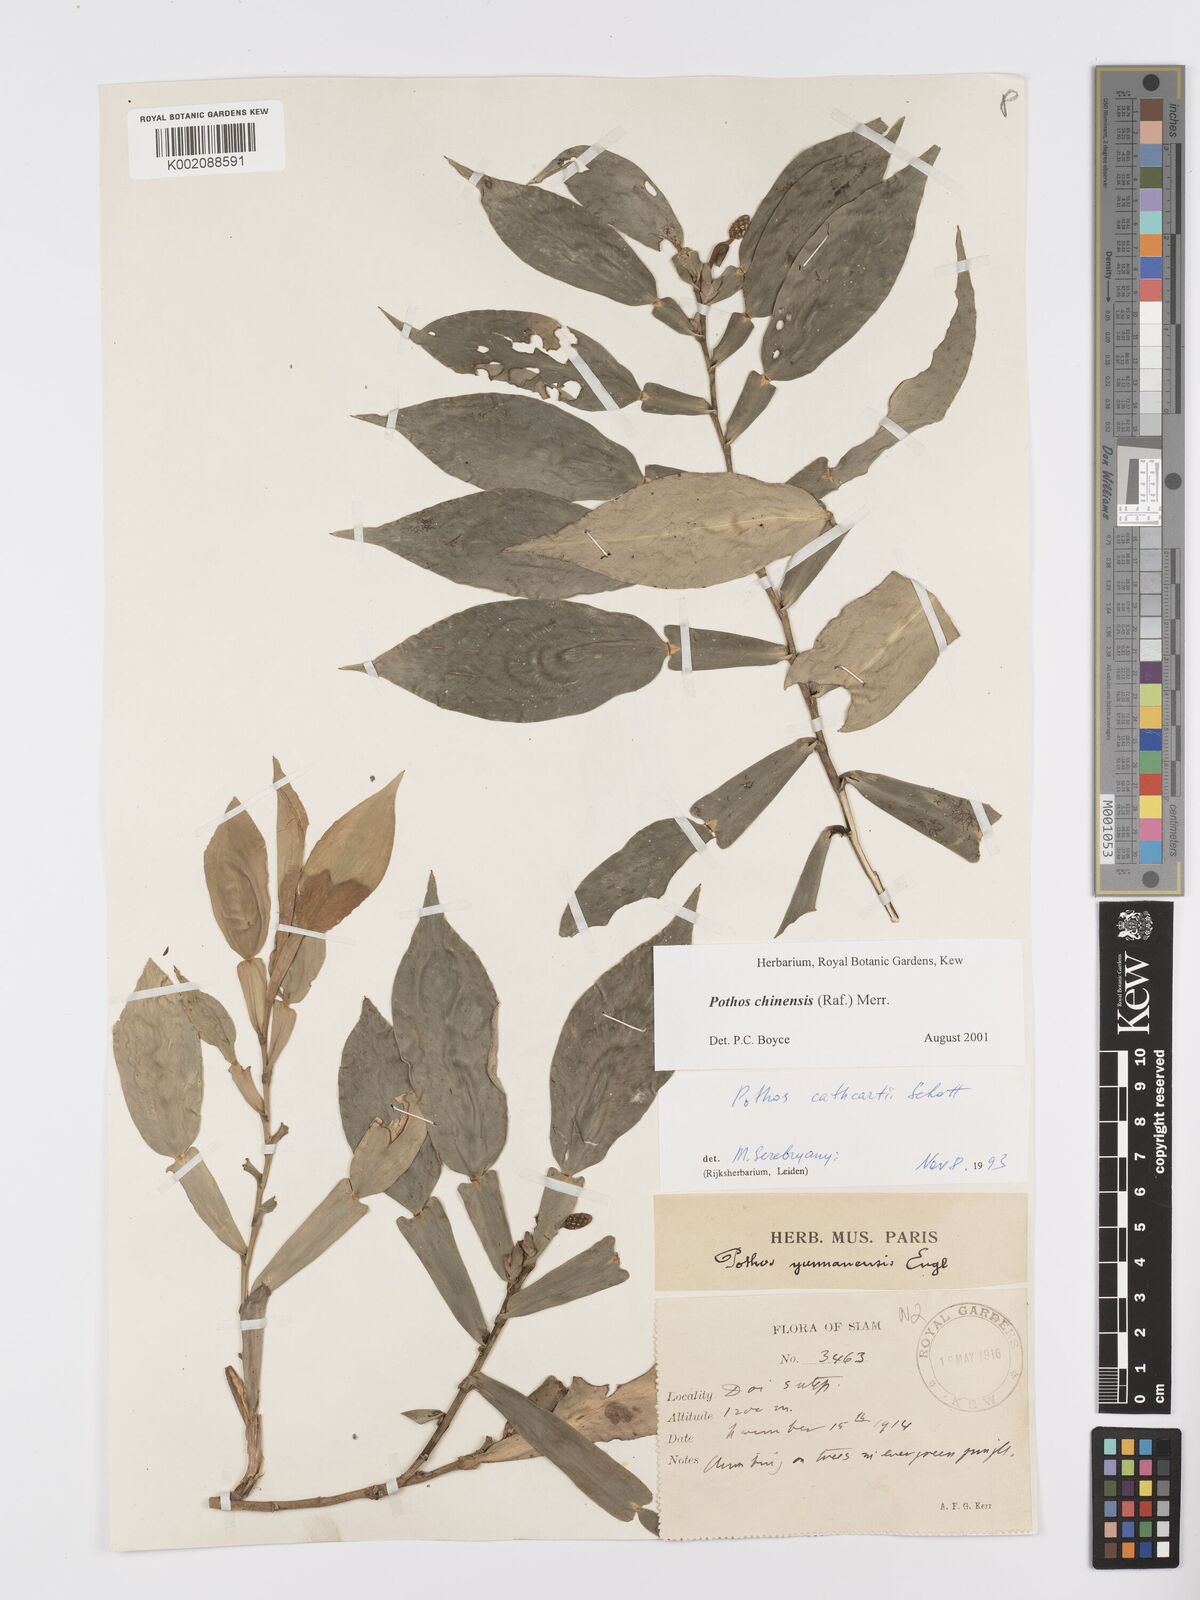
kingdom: Plantae
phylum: Tracheophyta
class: Liliopsida
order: Alismatales
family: Araceae
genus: Pothos
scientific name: Pothos chinensis
